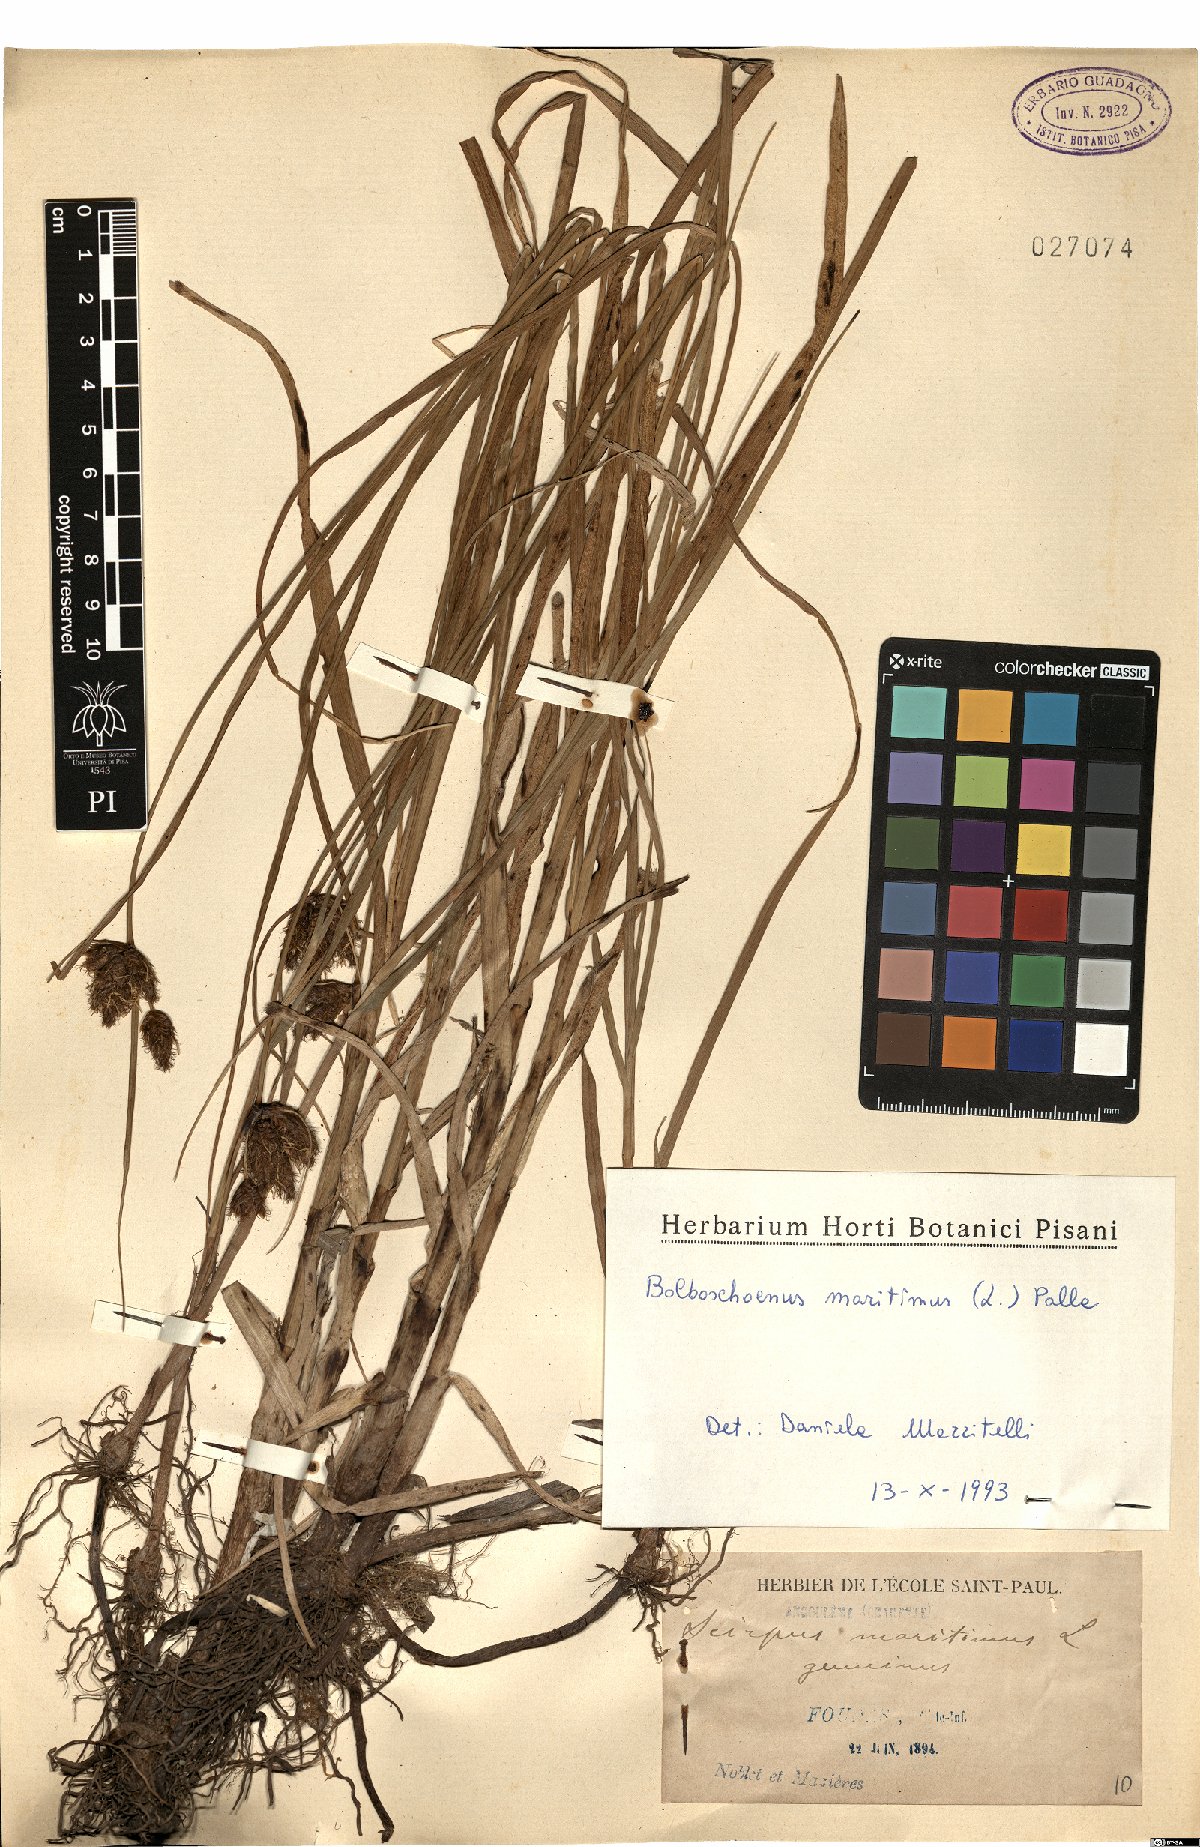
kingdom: Plantae
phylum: Tracheophyta
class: Liliopsida
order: Poales
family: Cyperaceae
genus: Bolboschoenus
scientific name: Bolboschoenus maritimus
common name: Sea club-rush
